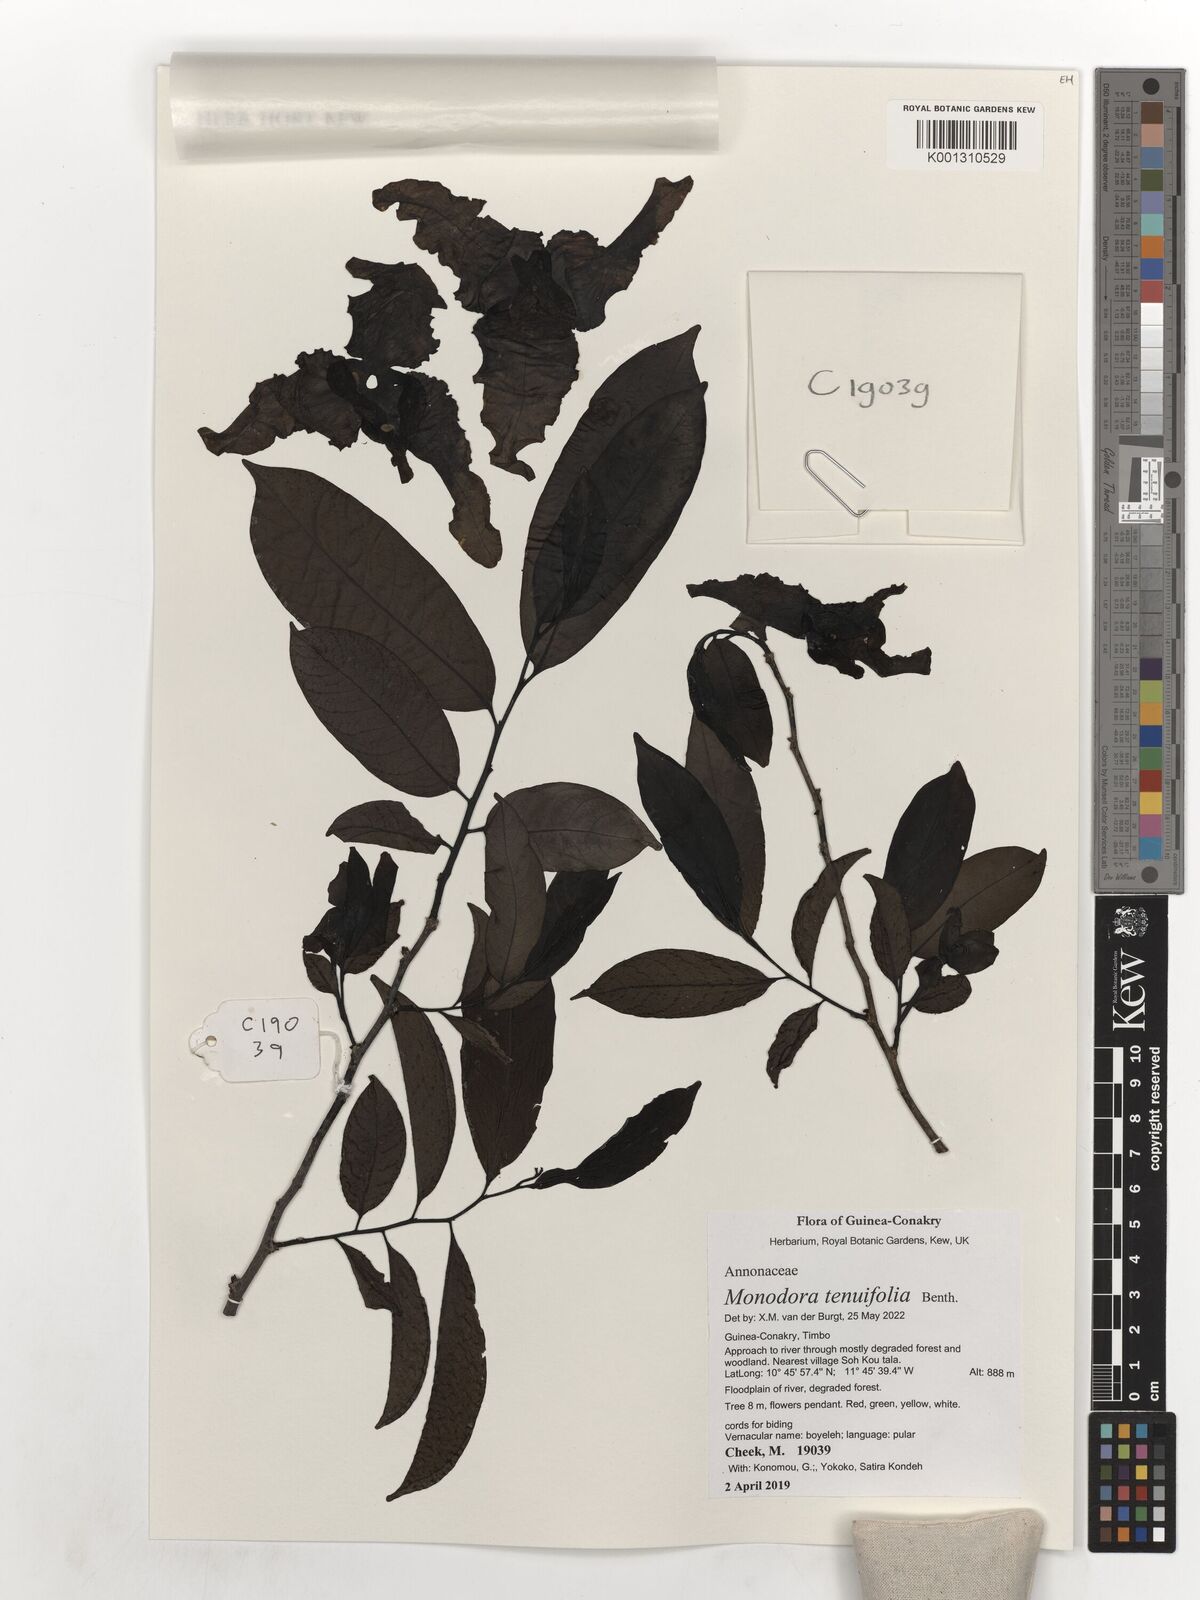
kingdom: Plantae
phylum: Tracheophyta
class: Magnoliopsida
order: Magnoliales
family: Annonaceae
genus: Monodora
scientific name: Monodora tenuifolia
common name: Orchidtree
